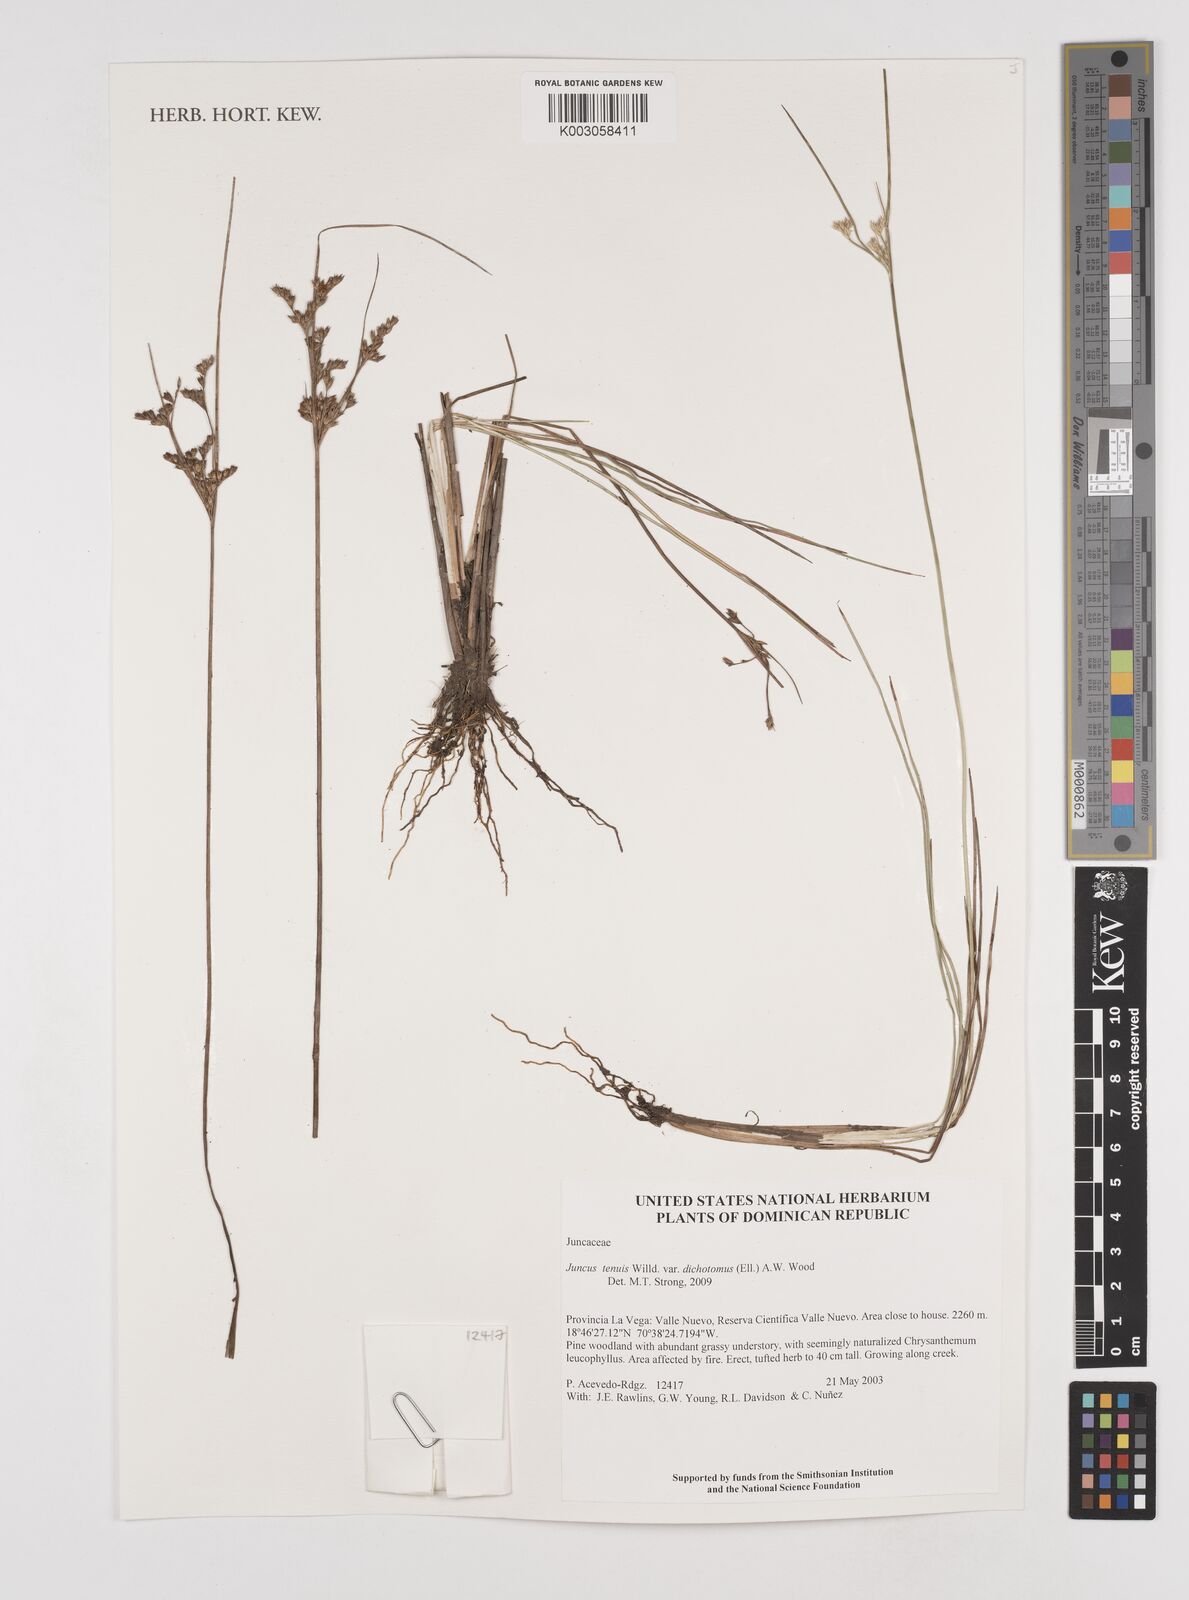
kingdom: Plantae
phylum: Tracheophyta
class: Liliopsida
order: Poales
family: Juncaceae
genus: Juncus
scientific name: Juncus dichotomus
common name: Forked rush
